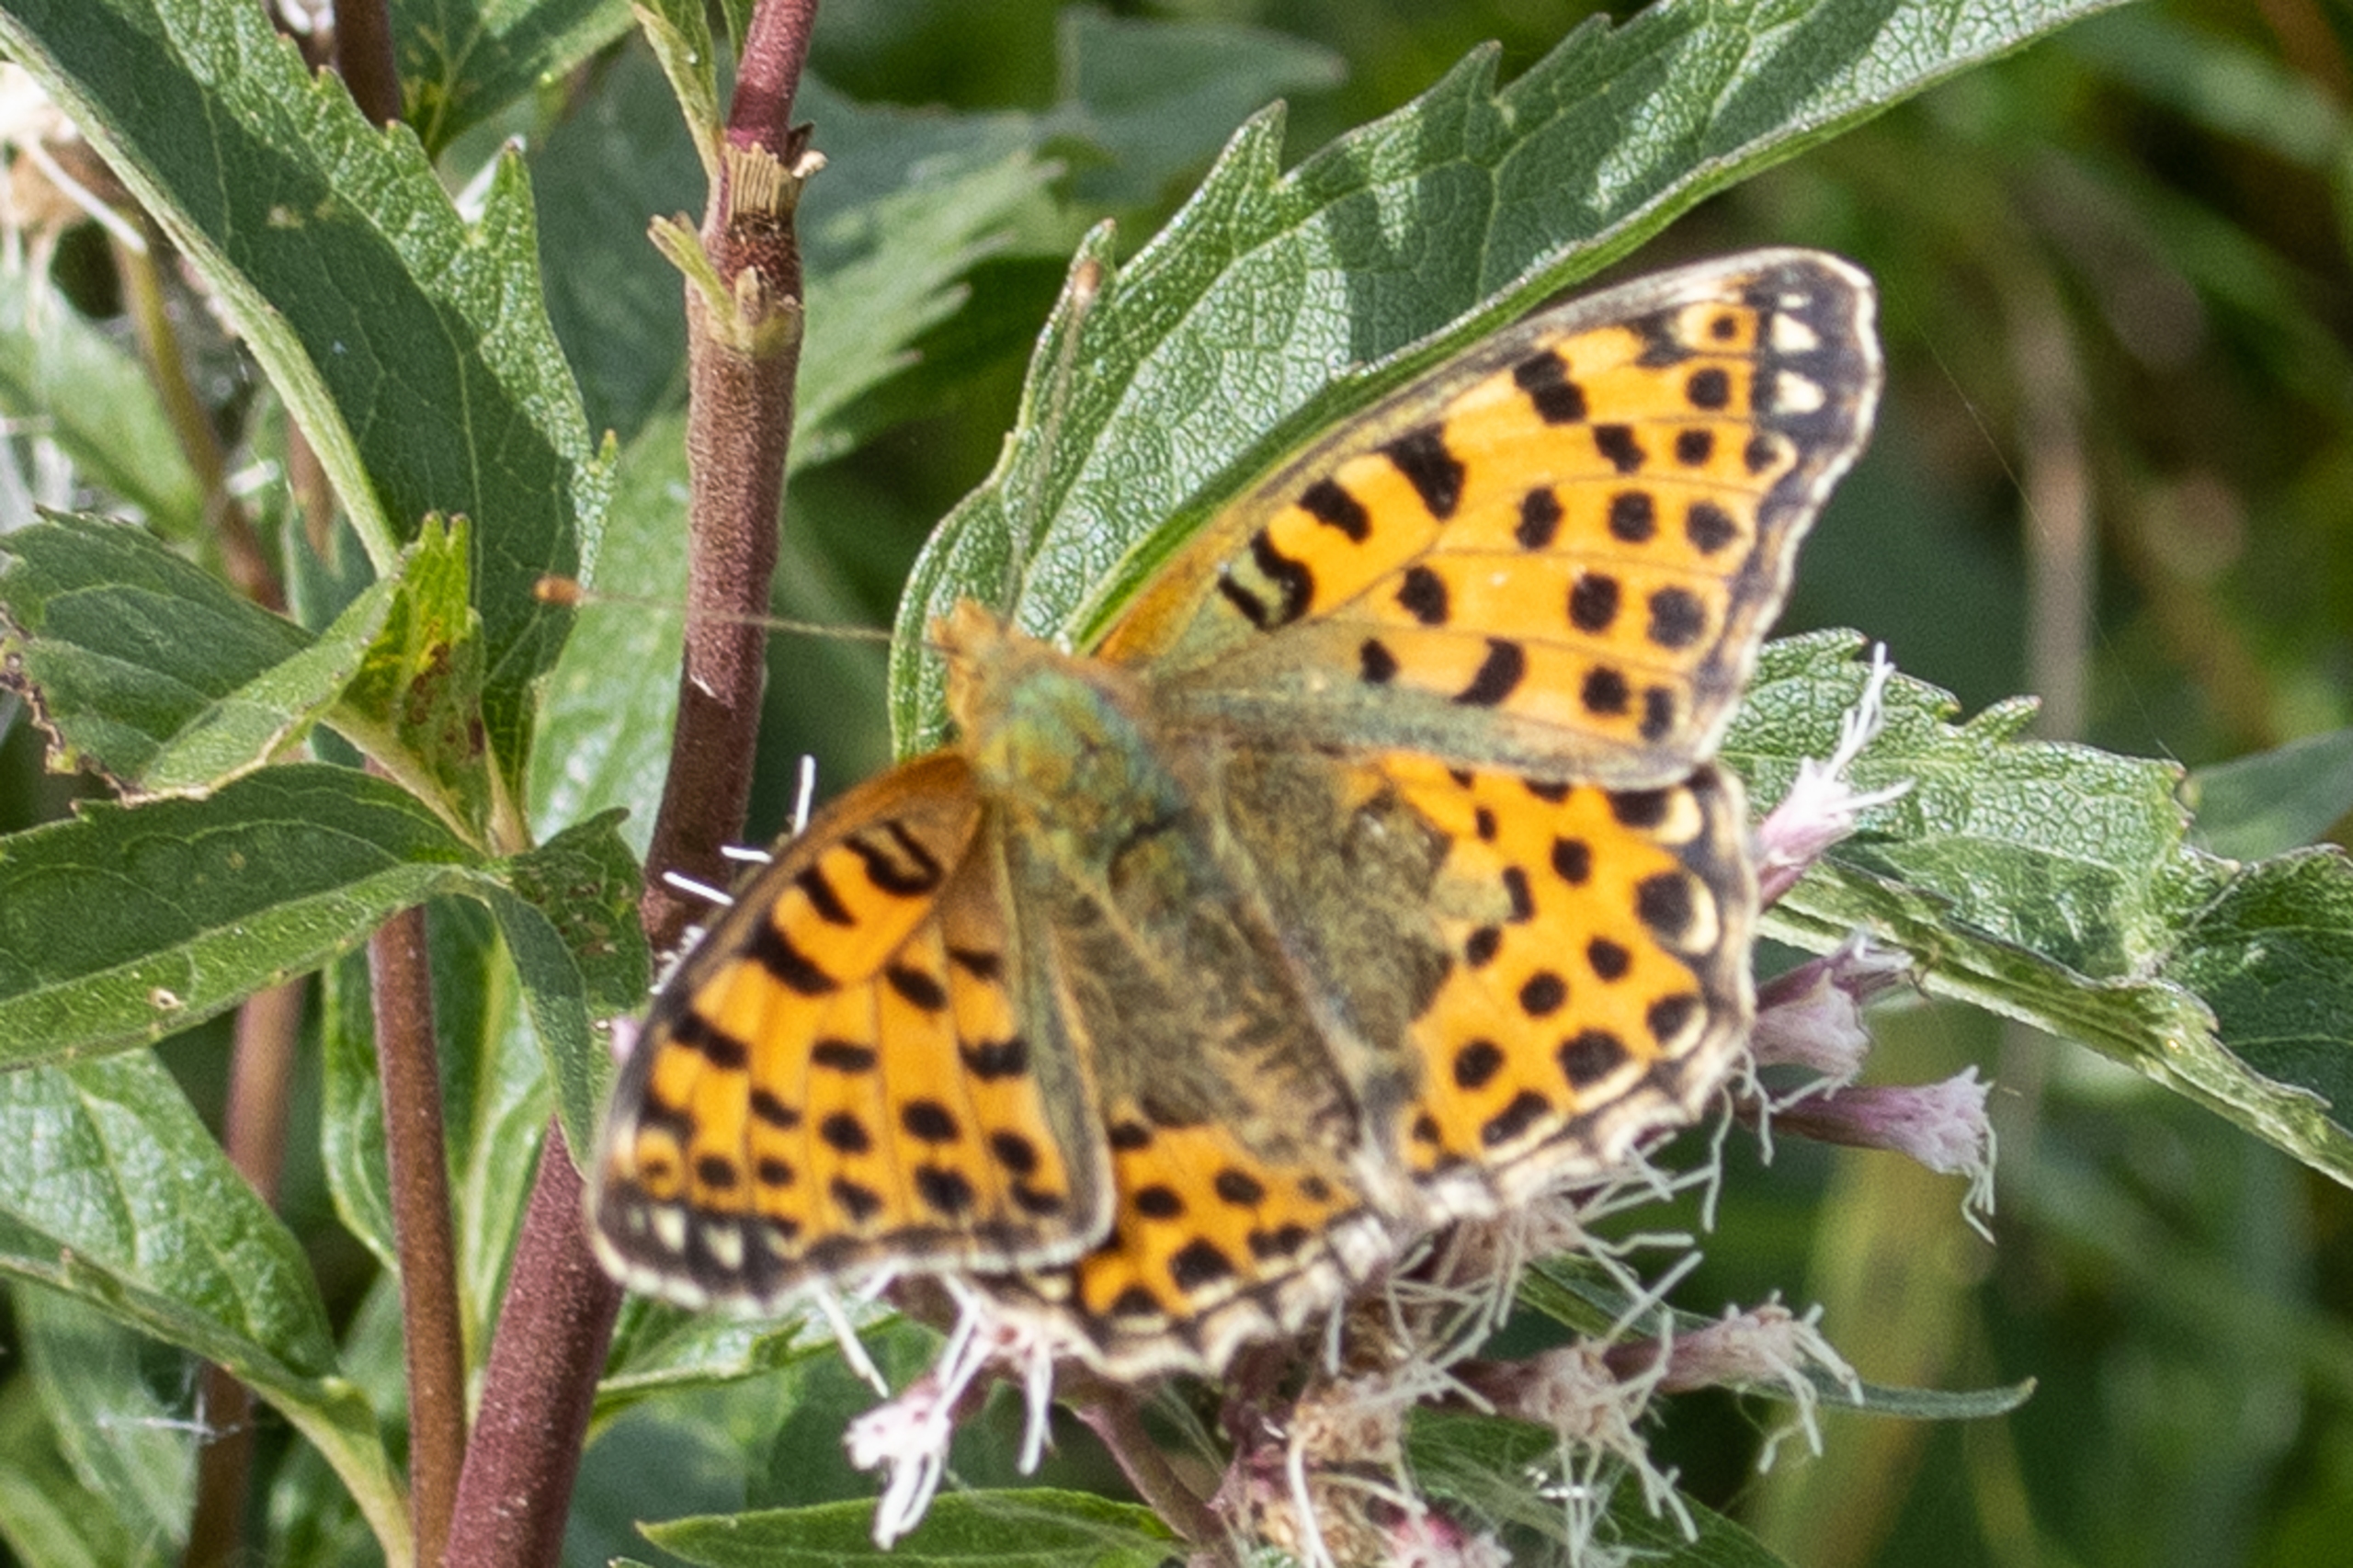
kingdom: Animalia
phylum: Arthropoda
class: Insecta
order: Lepidoptera
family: Nymphalidae
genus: Issoria
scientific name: Issoria lathonia
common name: Storplettet perlemorsommerfugl
